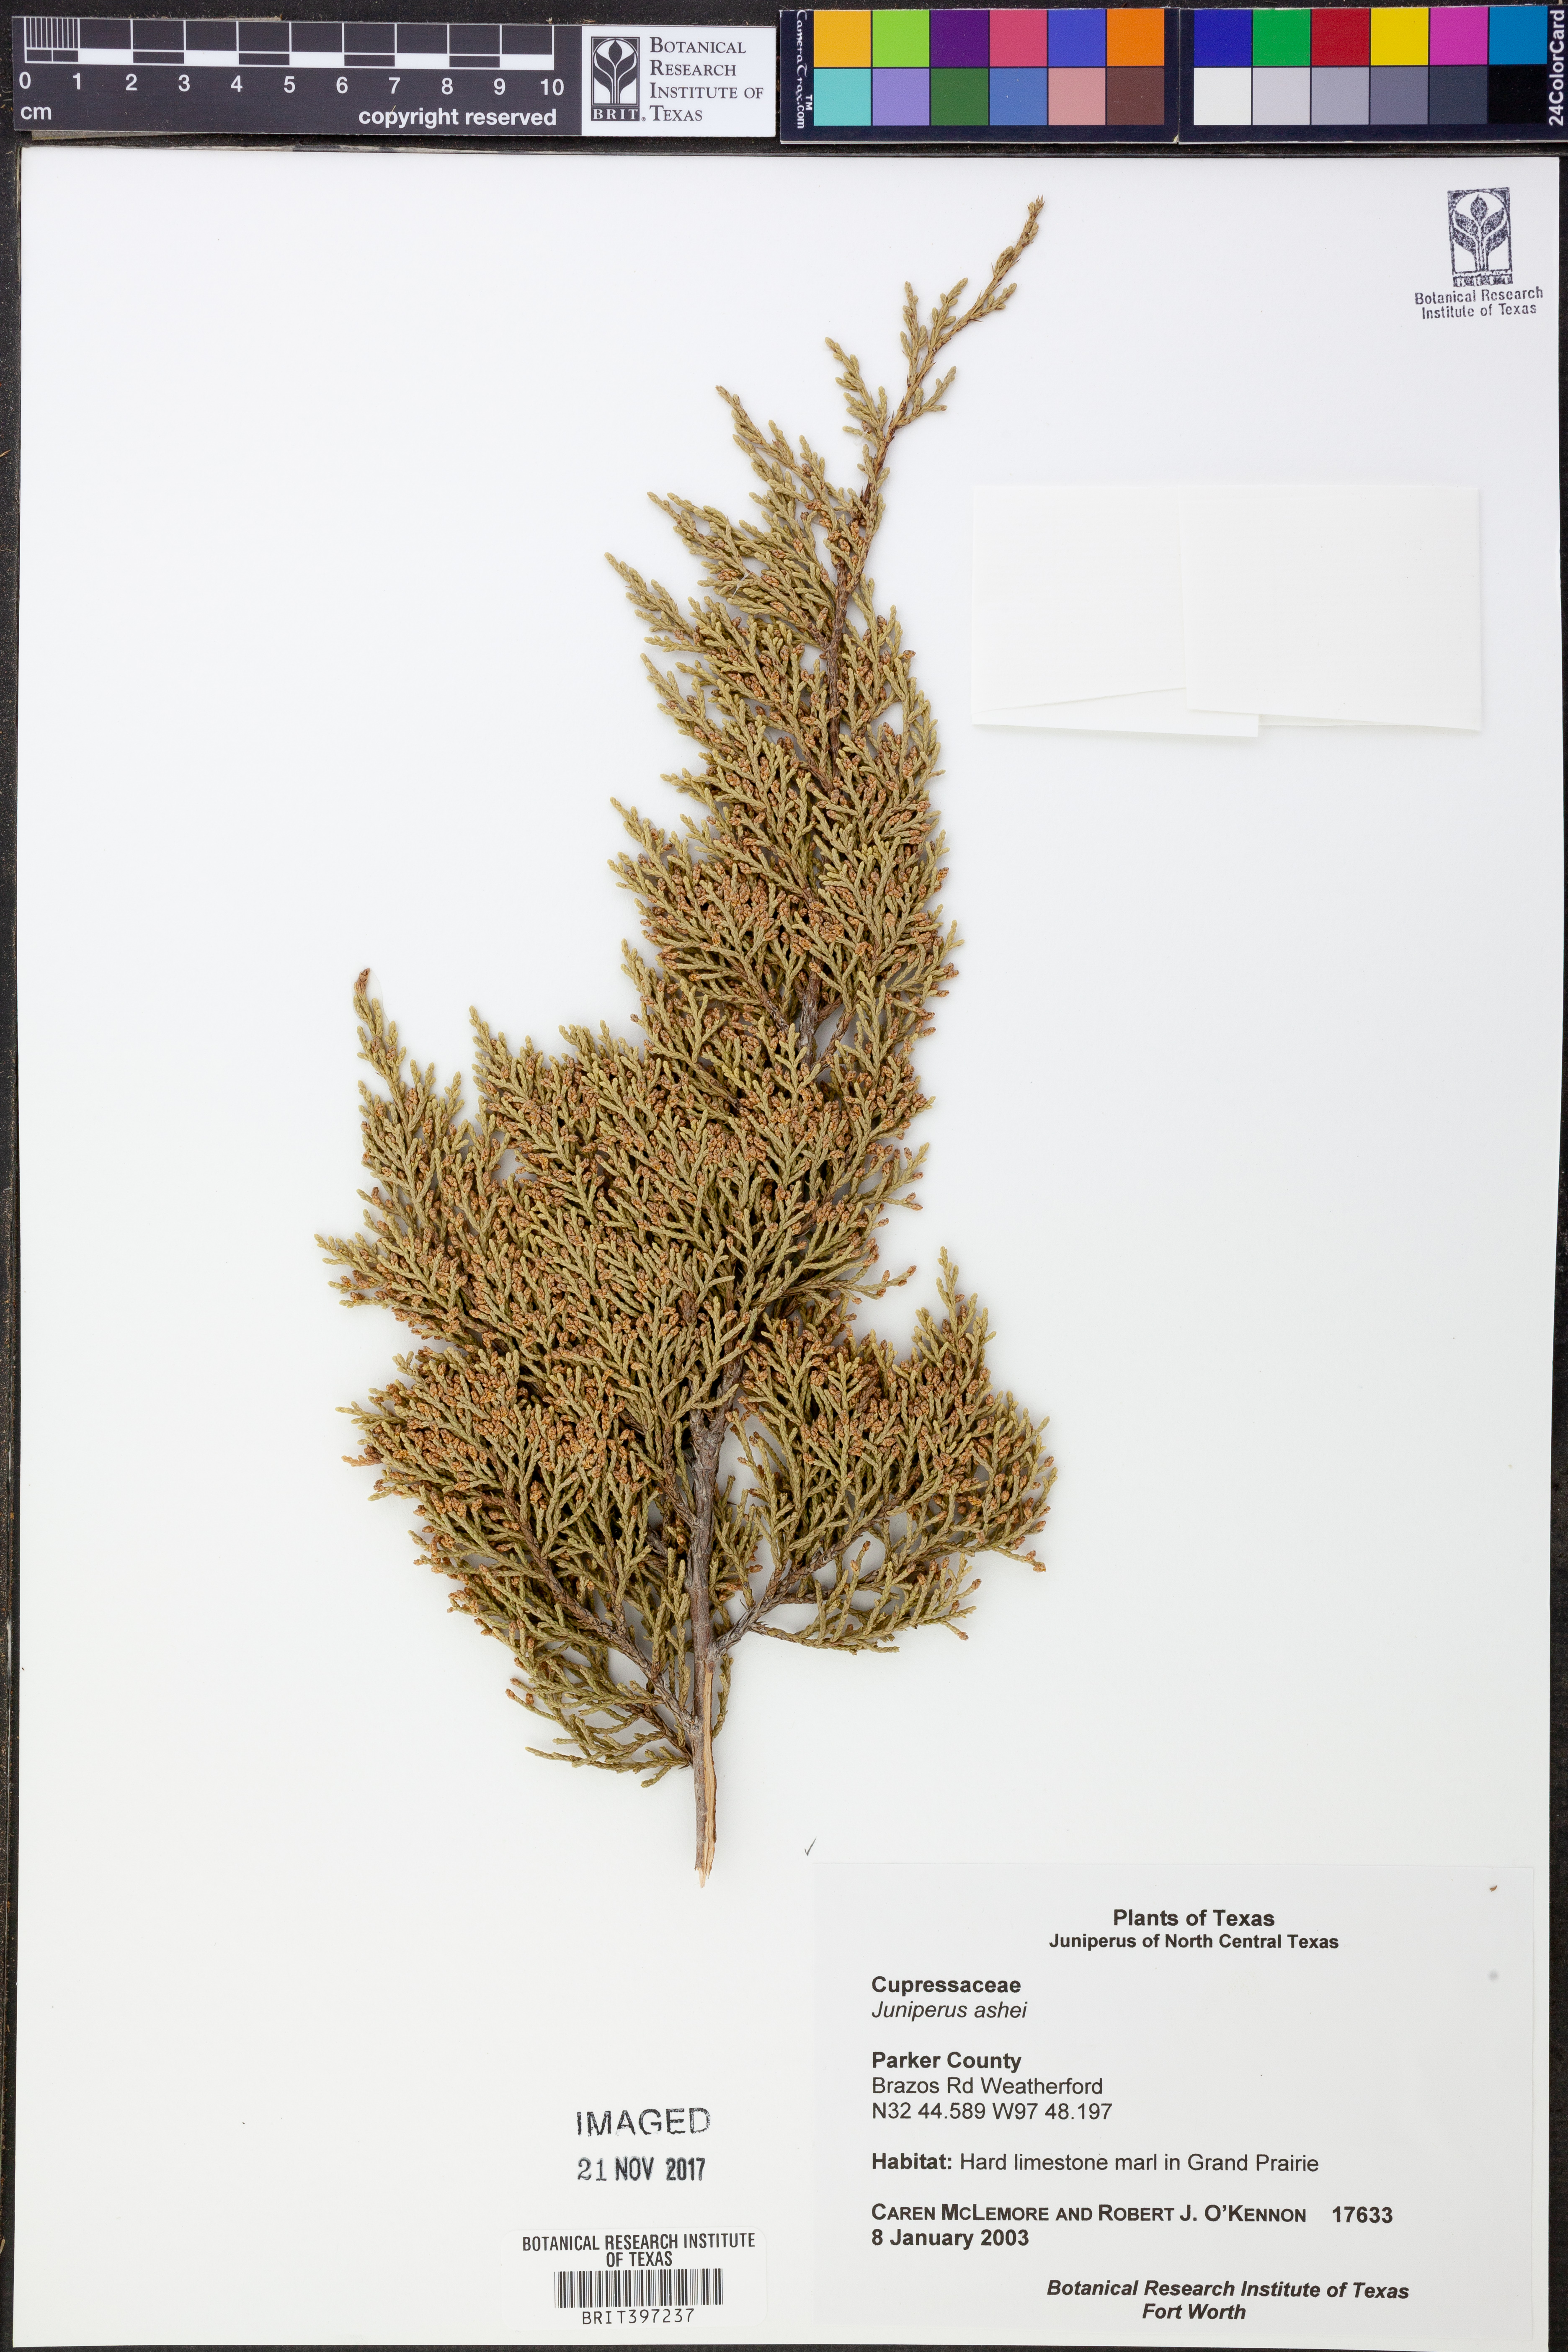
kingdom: Plantae
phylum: Tracheophyta
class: Pinopsida
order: Pinales
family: Cupressaceae
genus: Juniperus
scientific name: Juniperus ashei
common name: Mexican juniper
